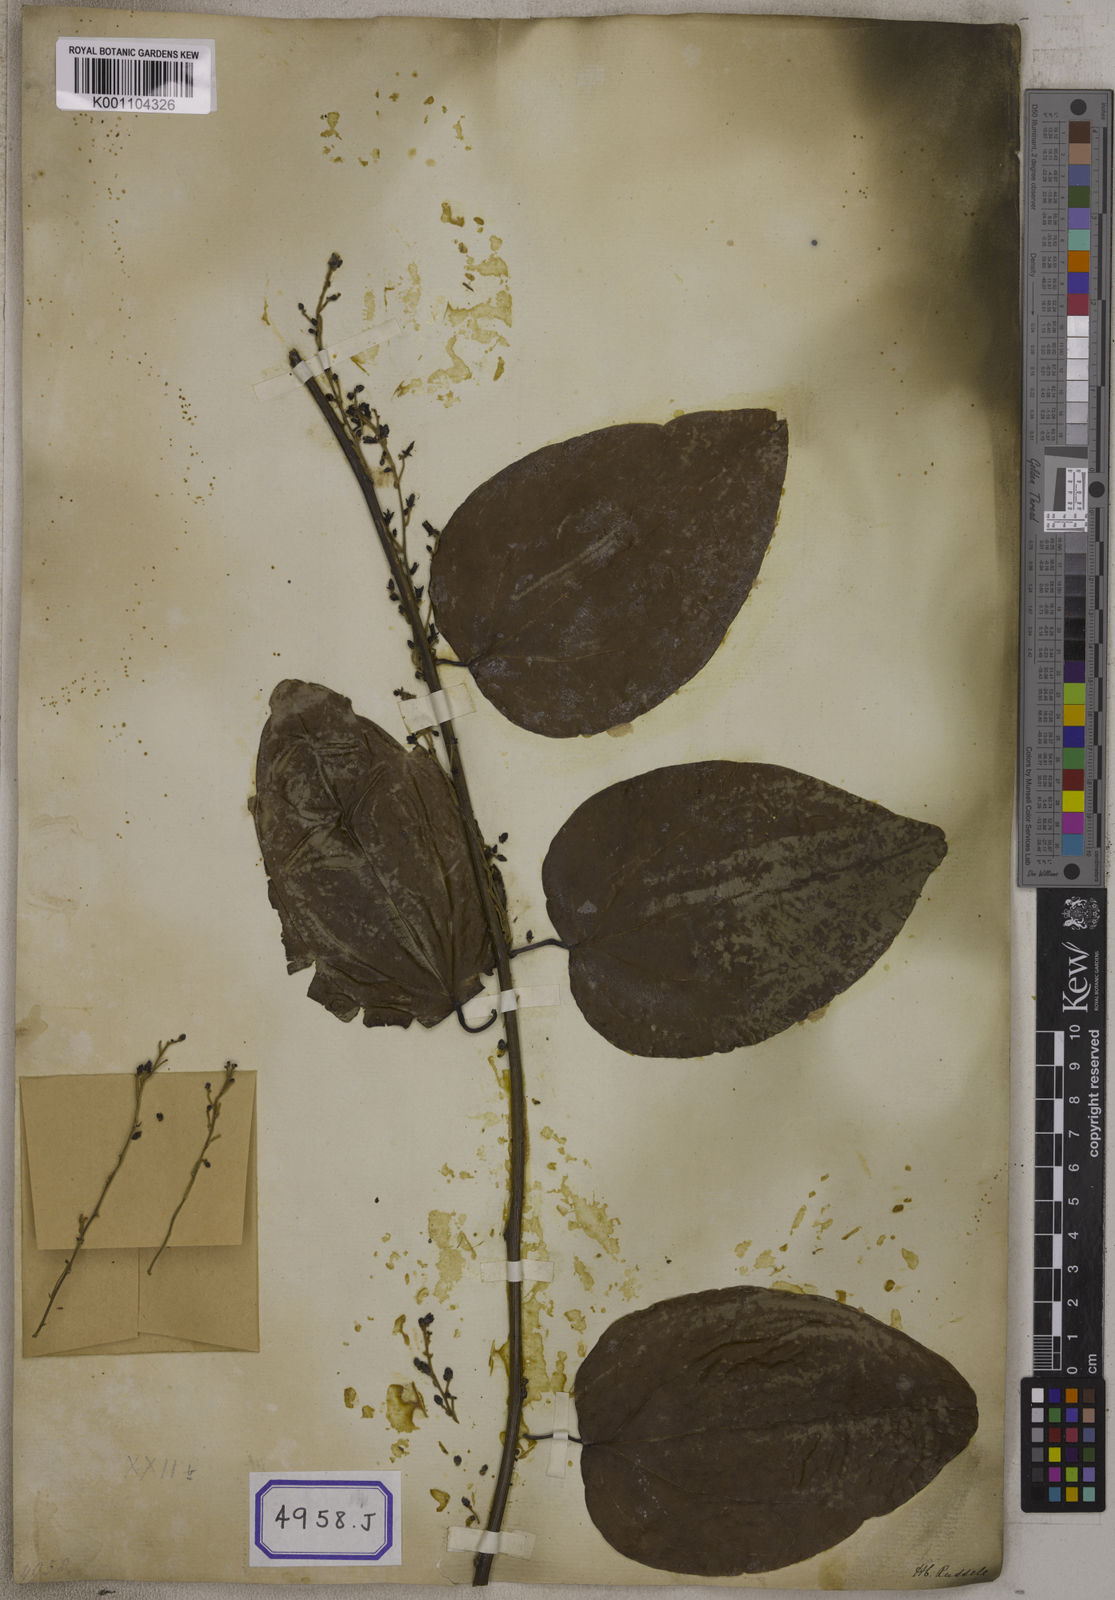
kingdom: Plantae
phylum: Tracheophyta
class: Magnoliopsida
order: Ranunculales
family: Menispermaceae
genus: Cocculus
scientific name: Cocculus
